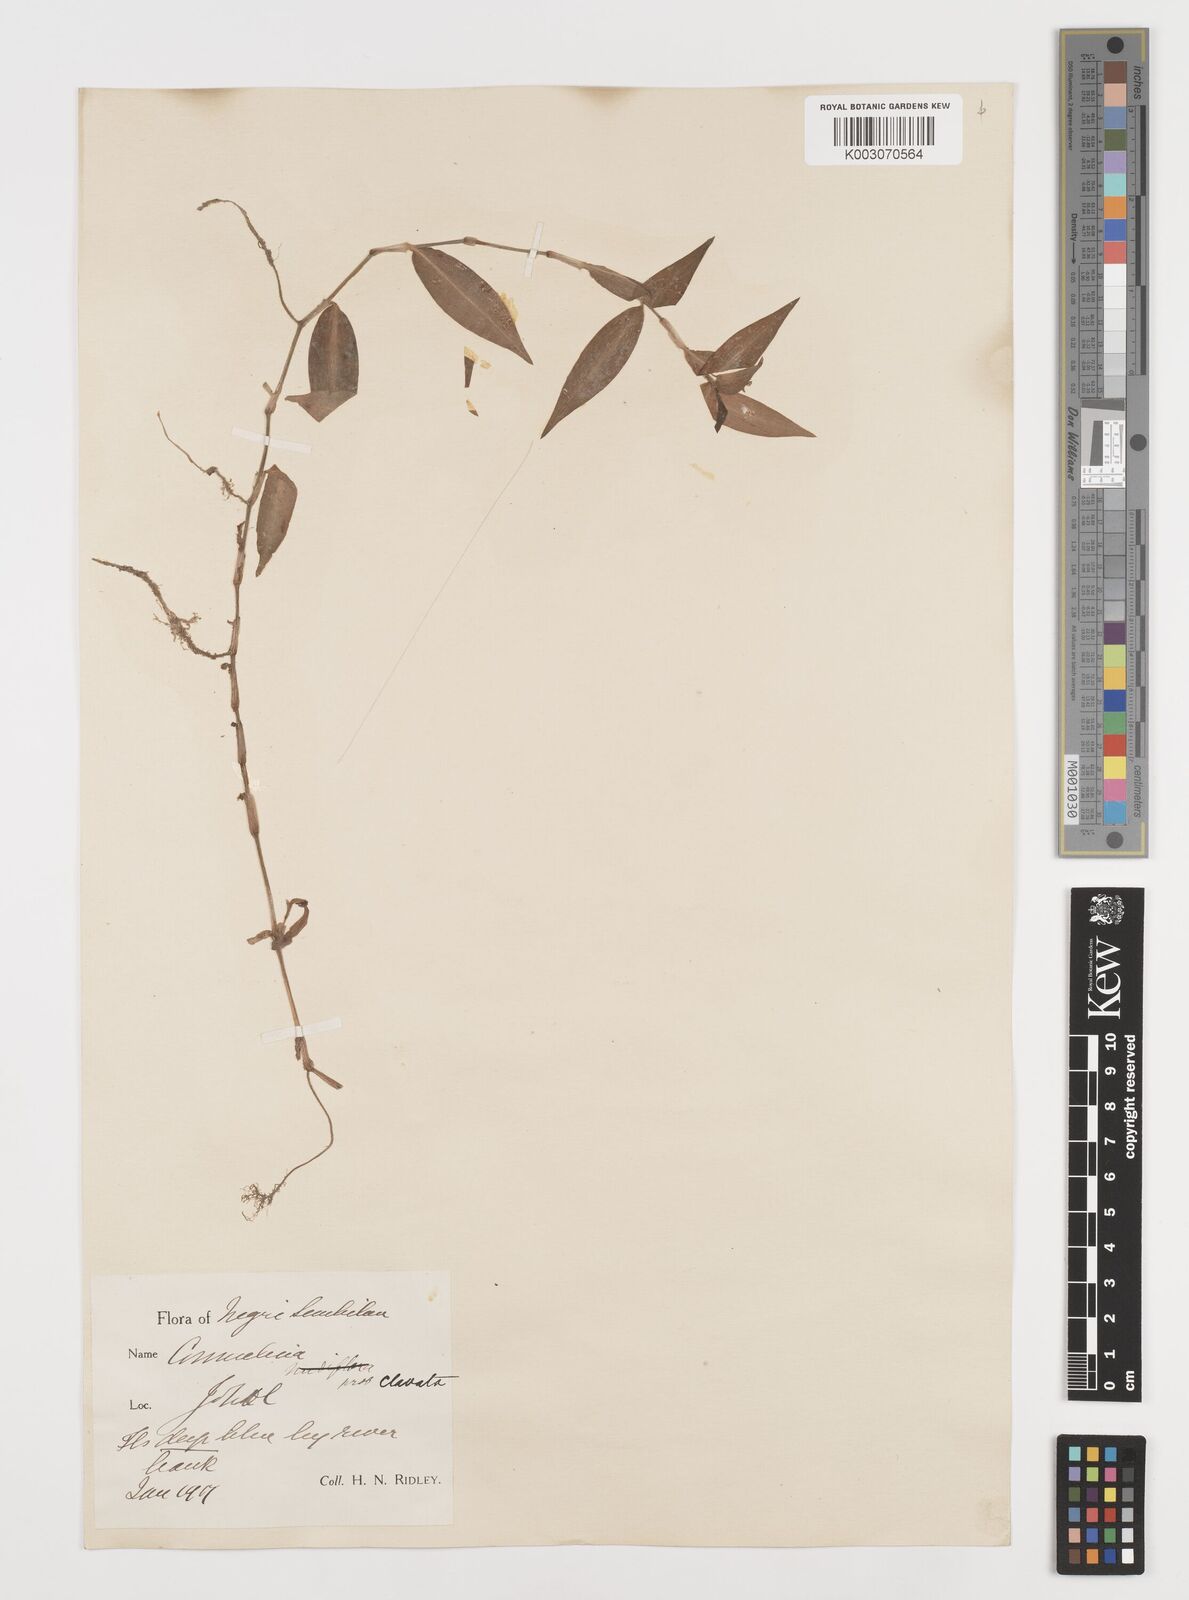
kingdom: Plantae
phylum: Tracheophyta
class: Liliopsida
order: Commelinales
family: Commelinaceae
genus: Commelina
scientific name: Commelina clavata
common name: Willow leaved dayflower
